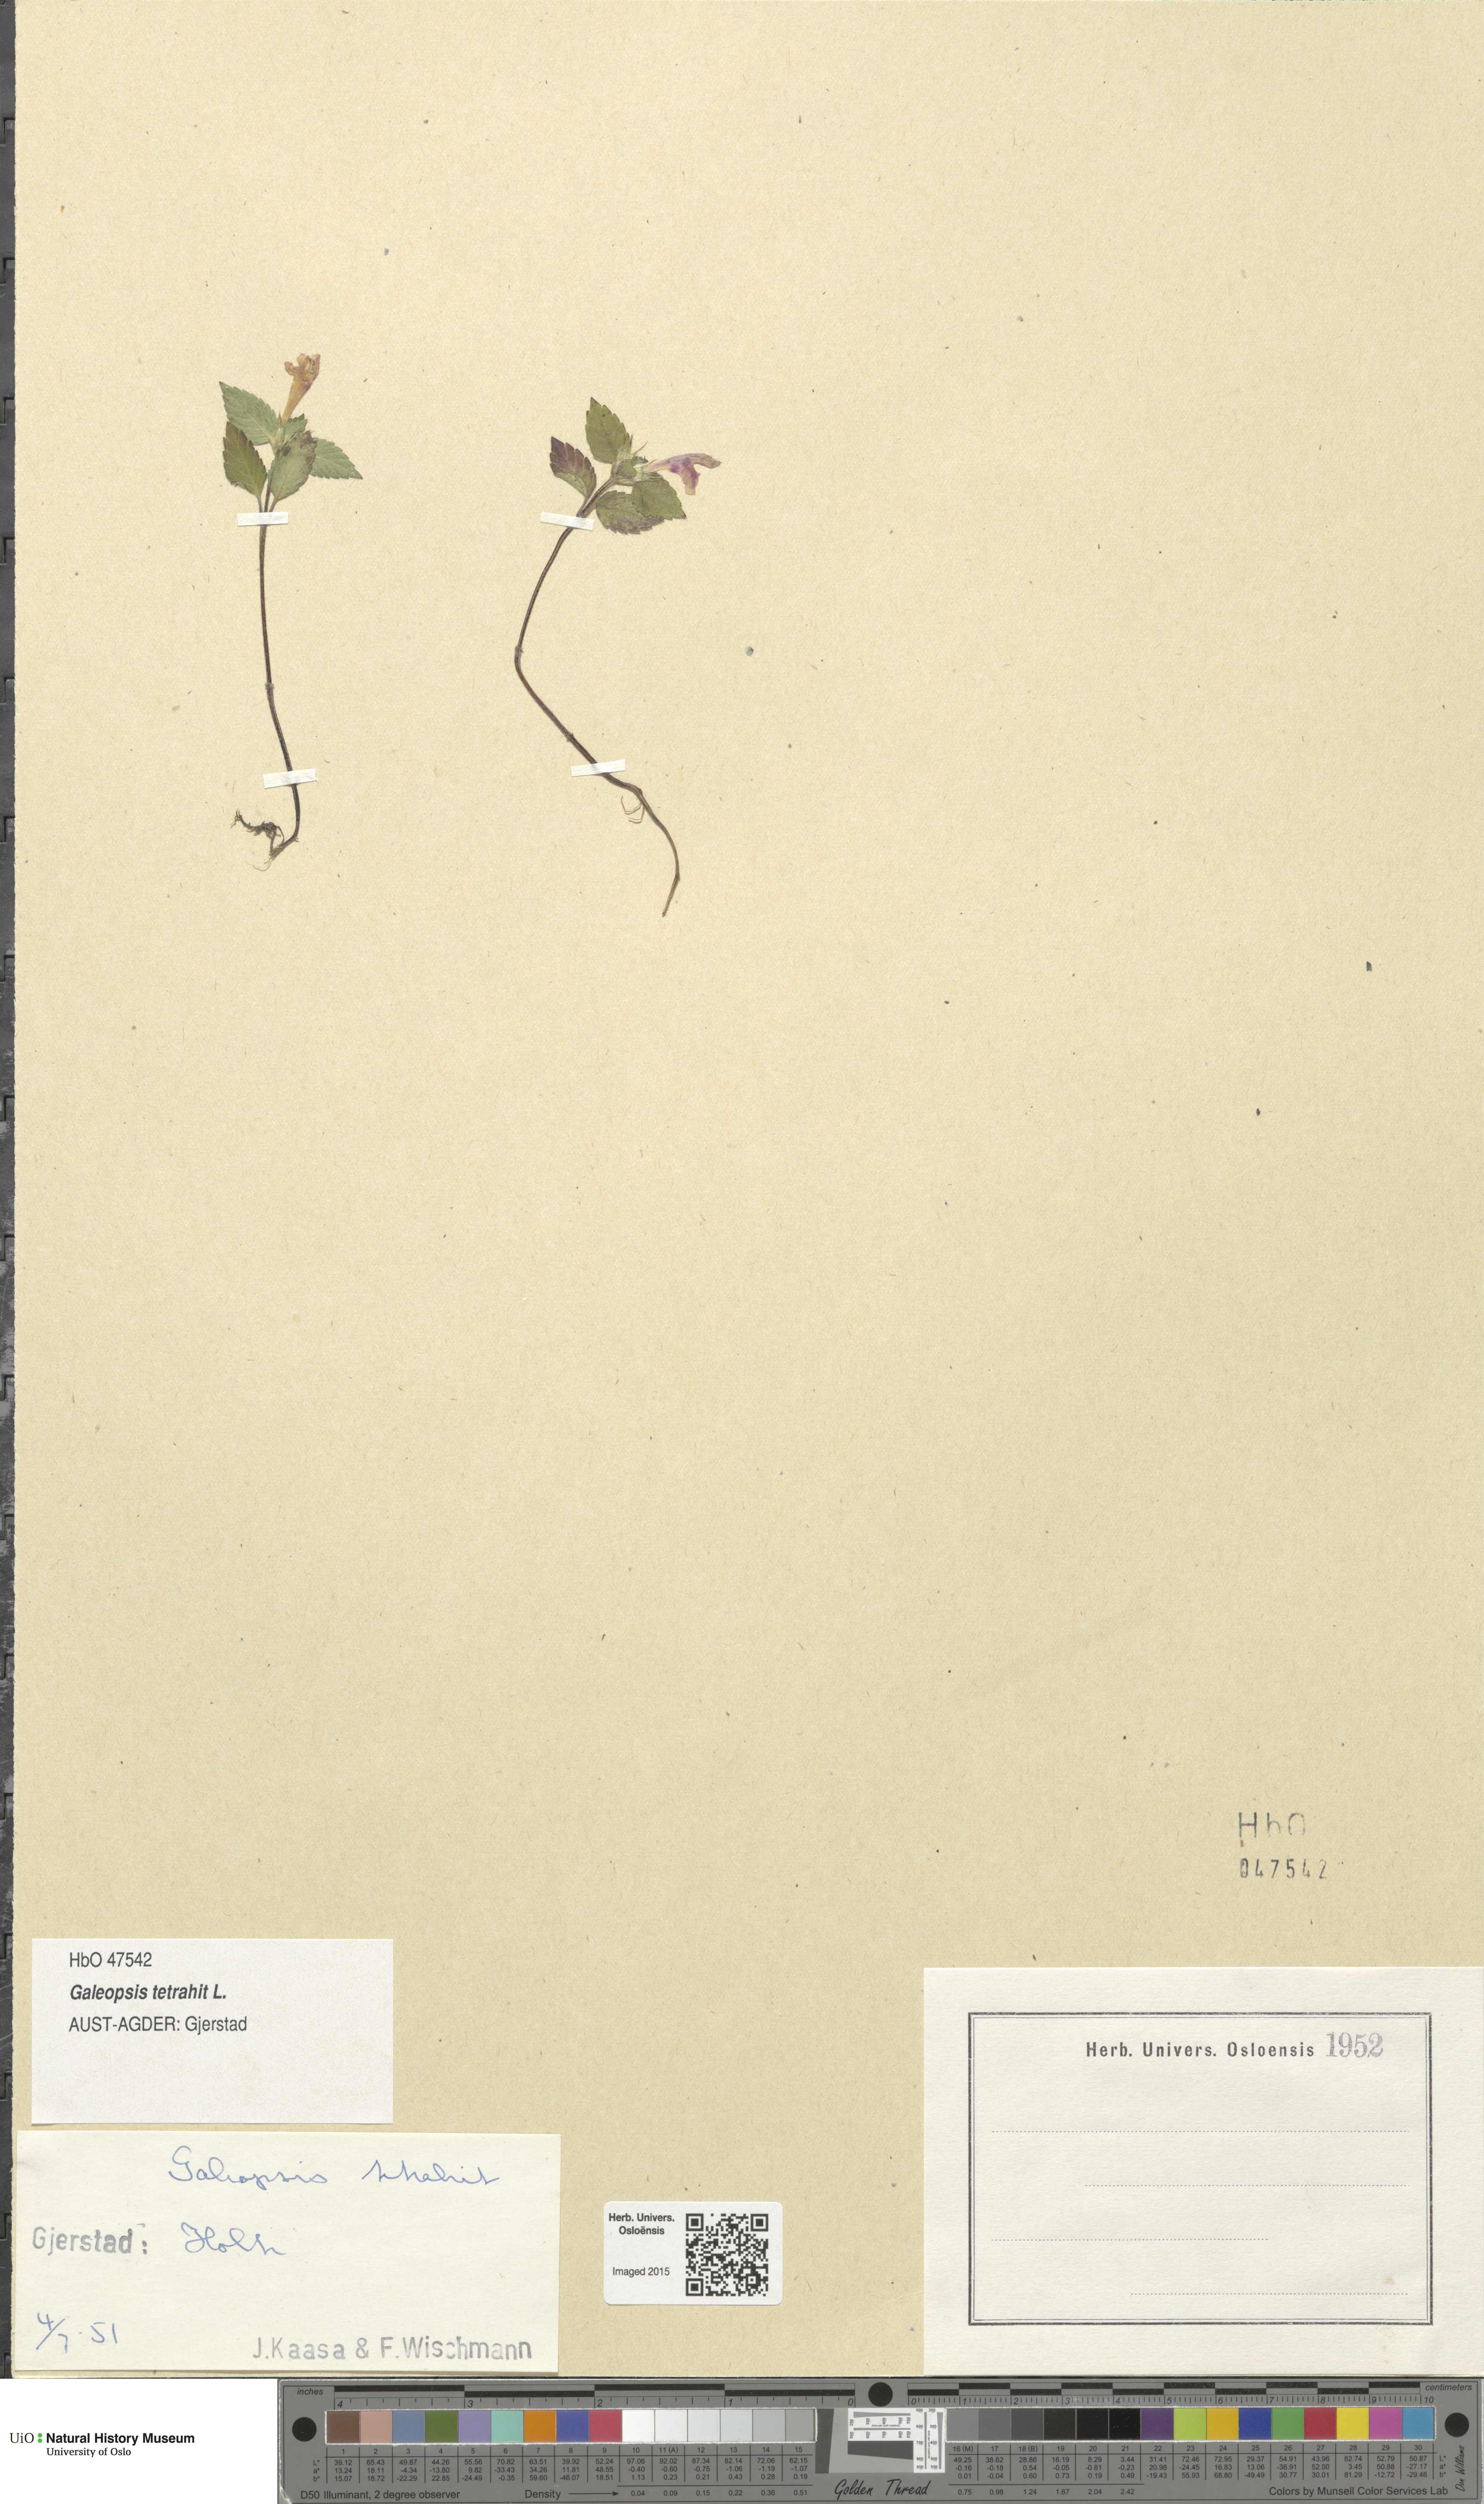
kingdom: Plantae
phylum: Tracheophyta
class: Magnoliopsida
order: Lamiales
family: Lamiaceae
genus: Galeopsis
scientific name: Galeopsis tetrahit
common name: Common hemp-nettle
